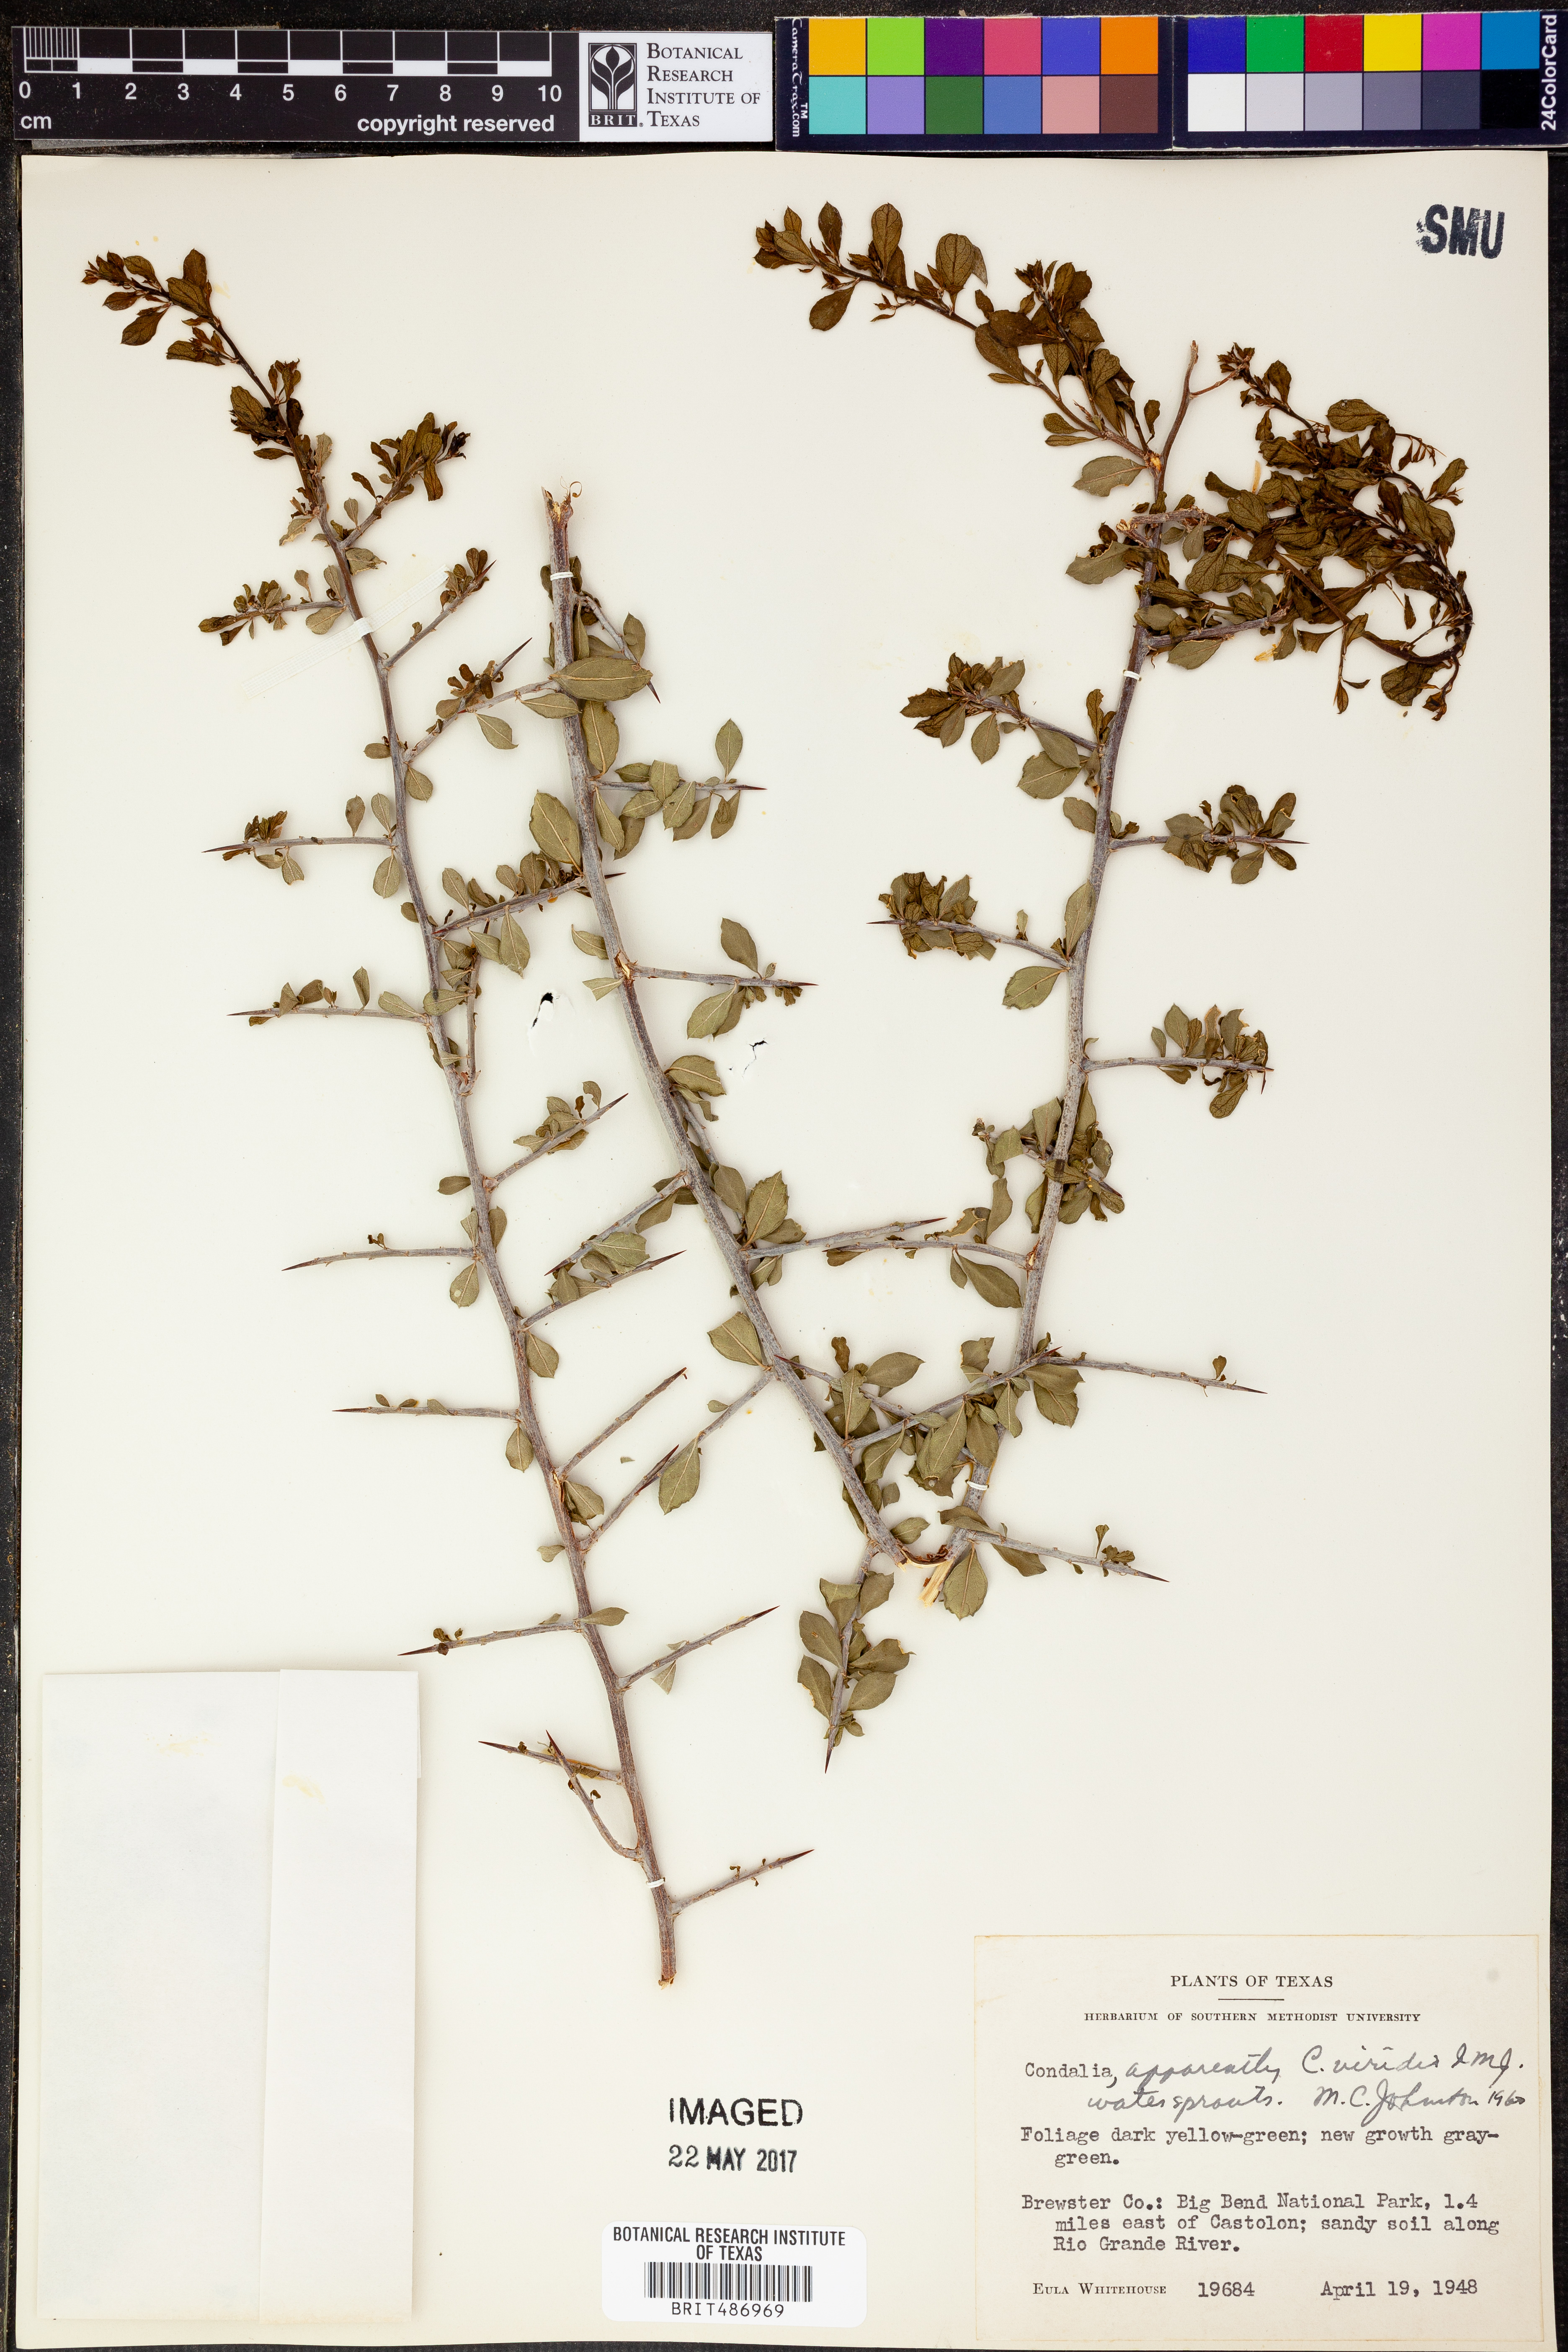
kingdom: Plantae
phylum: Tracheophyta
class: Magnoliopsida
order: Rosales
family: Rhamnaceae
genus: Condalia
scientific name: Condalia viridis
